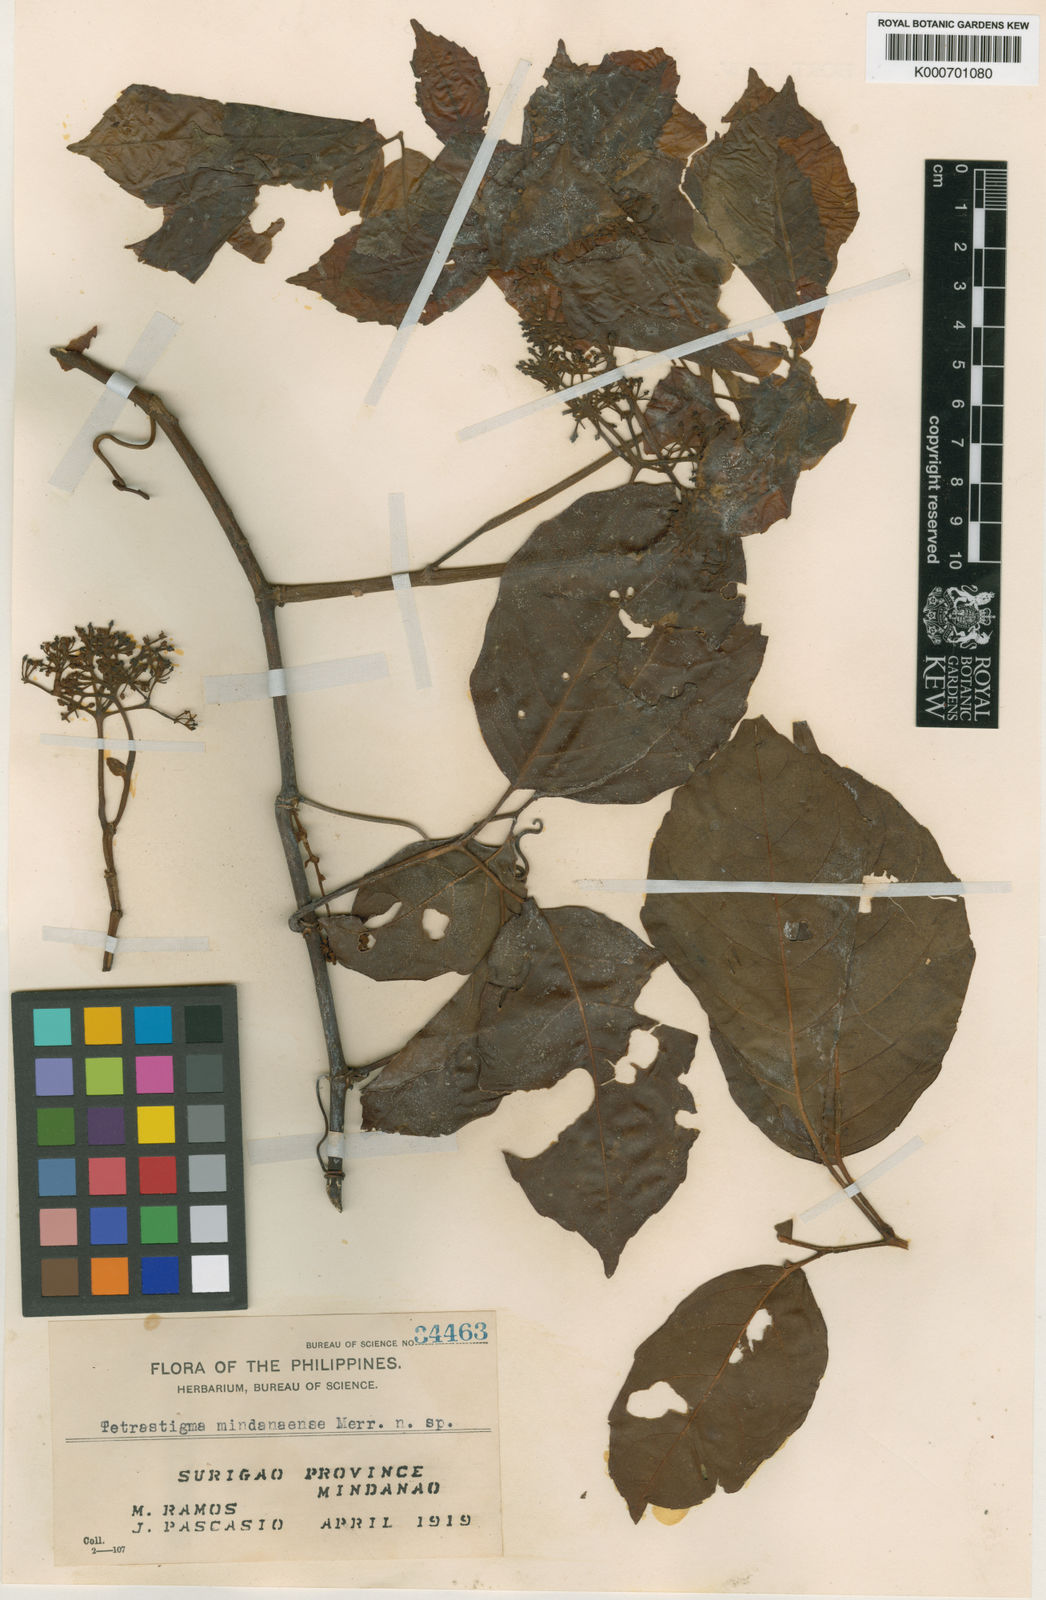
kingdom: Plantae
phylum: Tracheophyta
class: Magnoliopsida
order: Vitales
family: Vitaceae
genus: Tetrastigma
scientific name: Tetrastigma mindanaense
